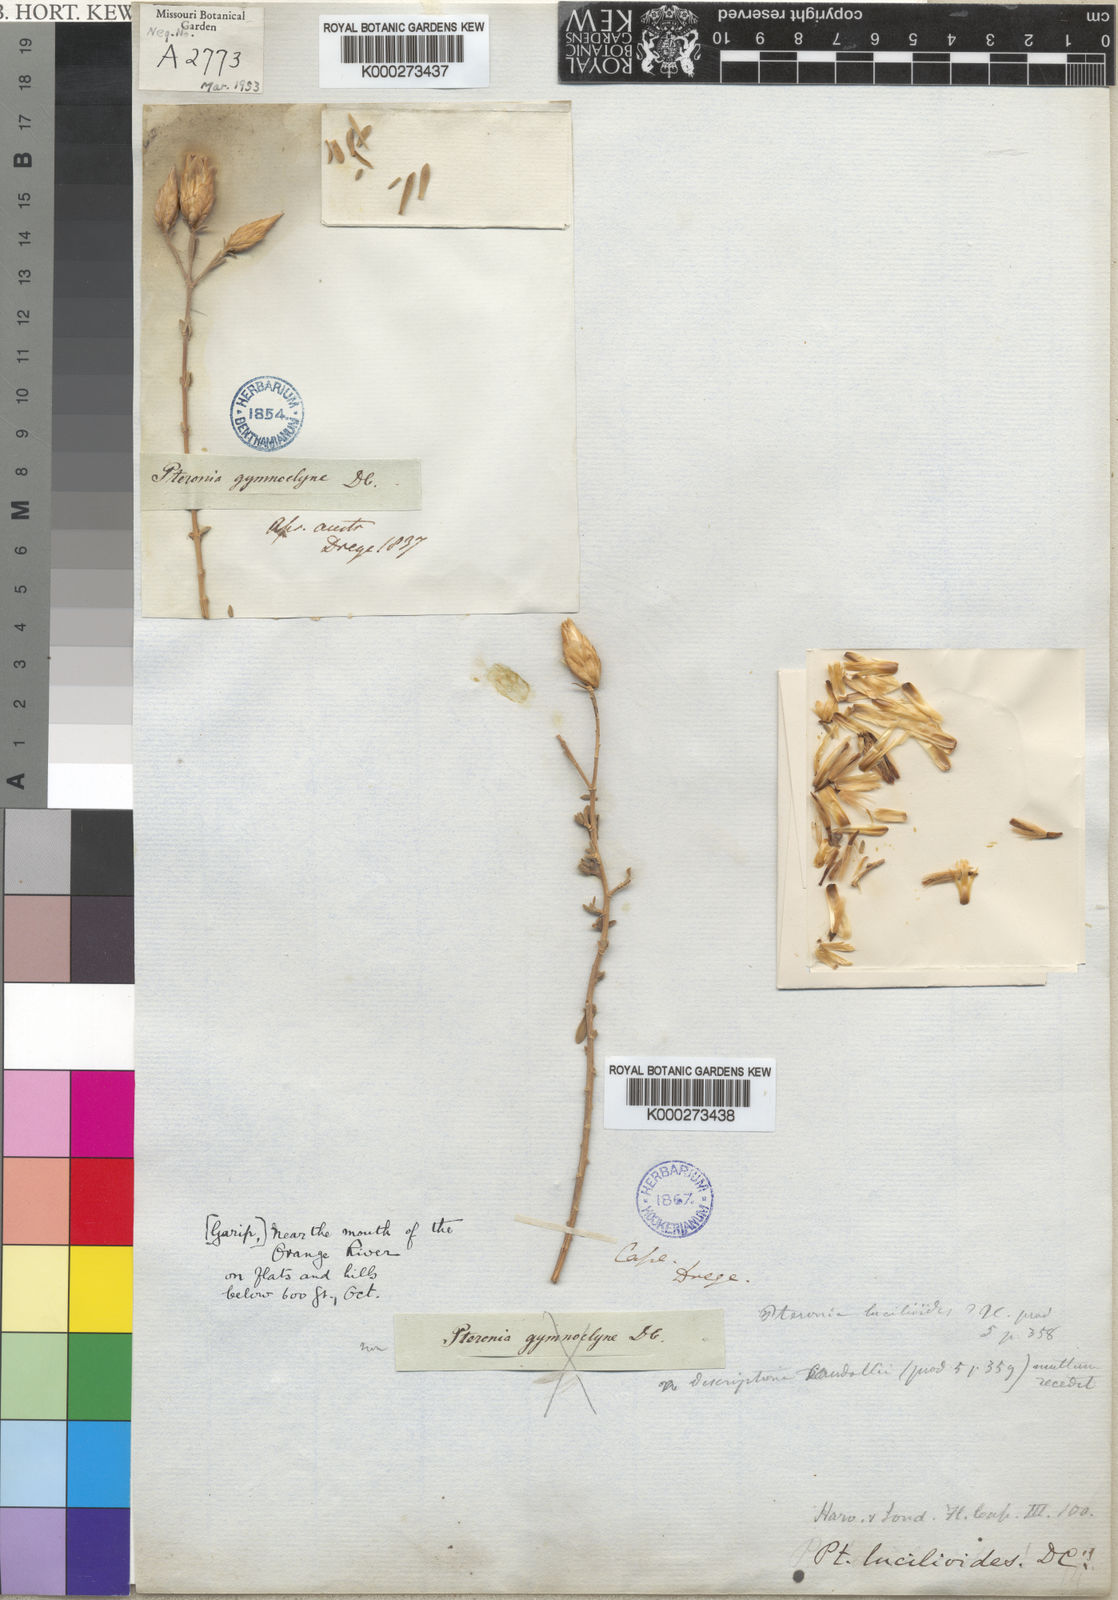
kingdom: Plantae
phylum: Tracheophyta
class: Magnoliopsida
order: Asterales
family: Asteraceae
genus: Pteronia
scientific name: Pteronia lucilioides
